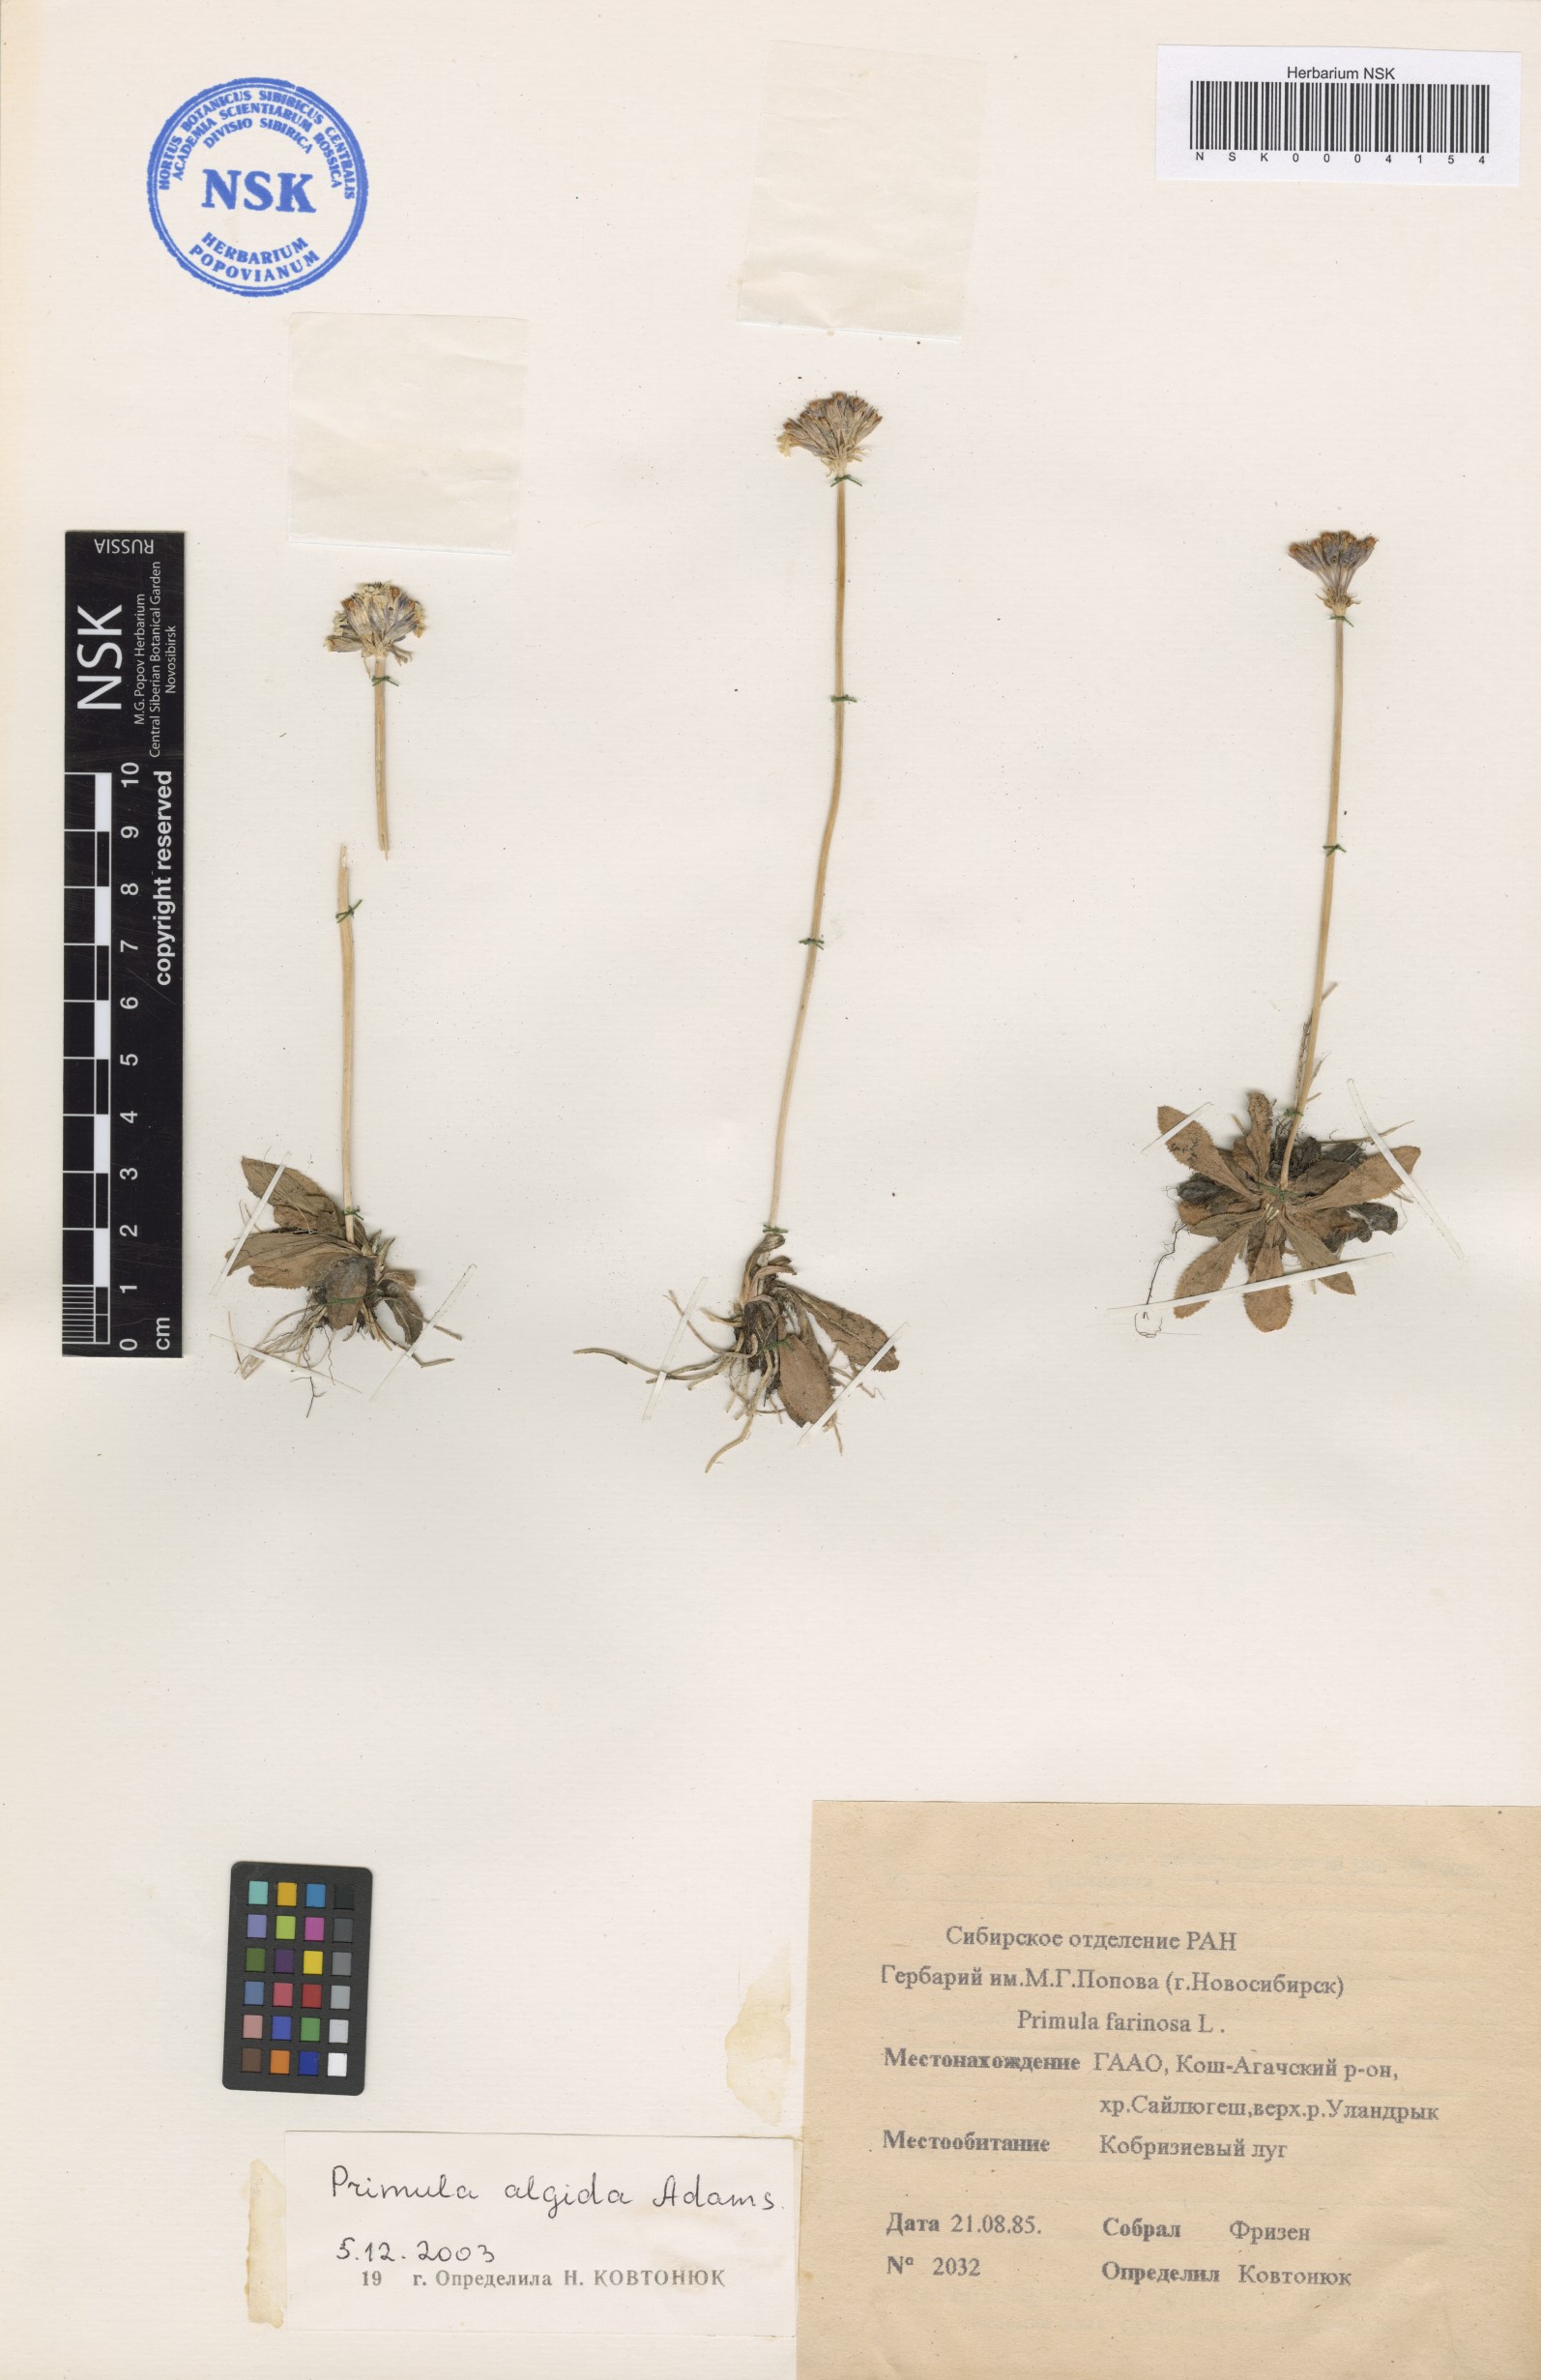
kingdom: Plantae
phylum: Tracheophyta
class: Magnoliopsida
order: Ericales
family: Primulaceae
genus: Primula
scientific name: Primula algida
